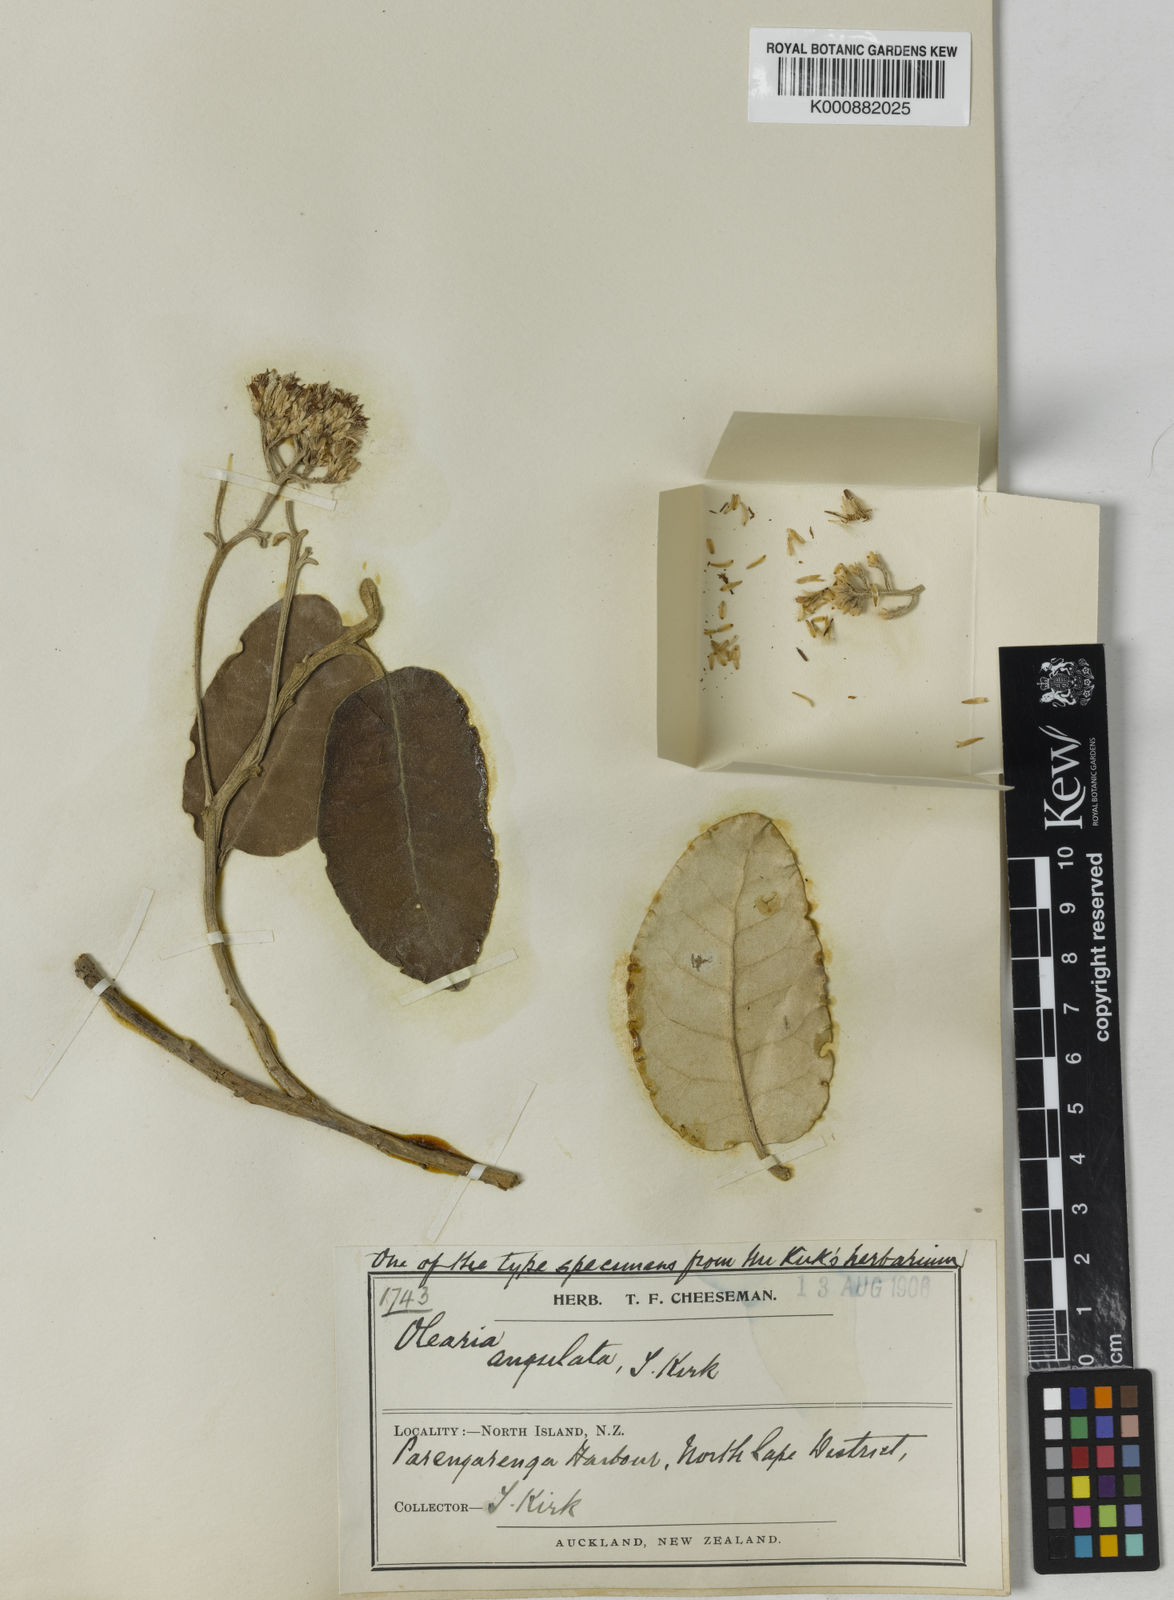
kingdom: Plantae
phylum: Tracheophyta
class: Magnoliopsida
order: Asterales
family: Asteraceae
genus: Olearia
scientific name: Olearia angulata
